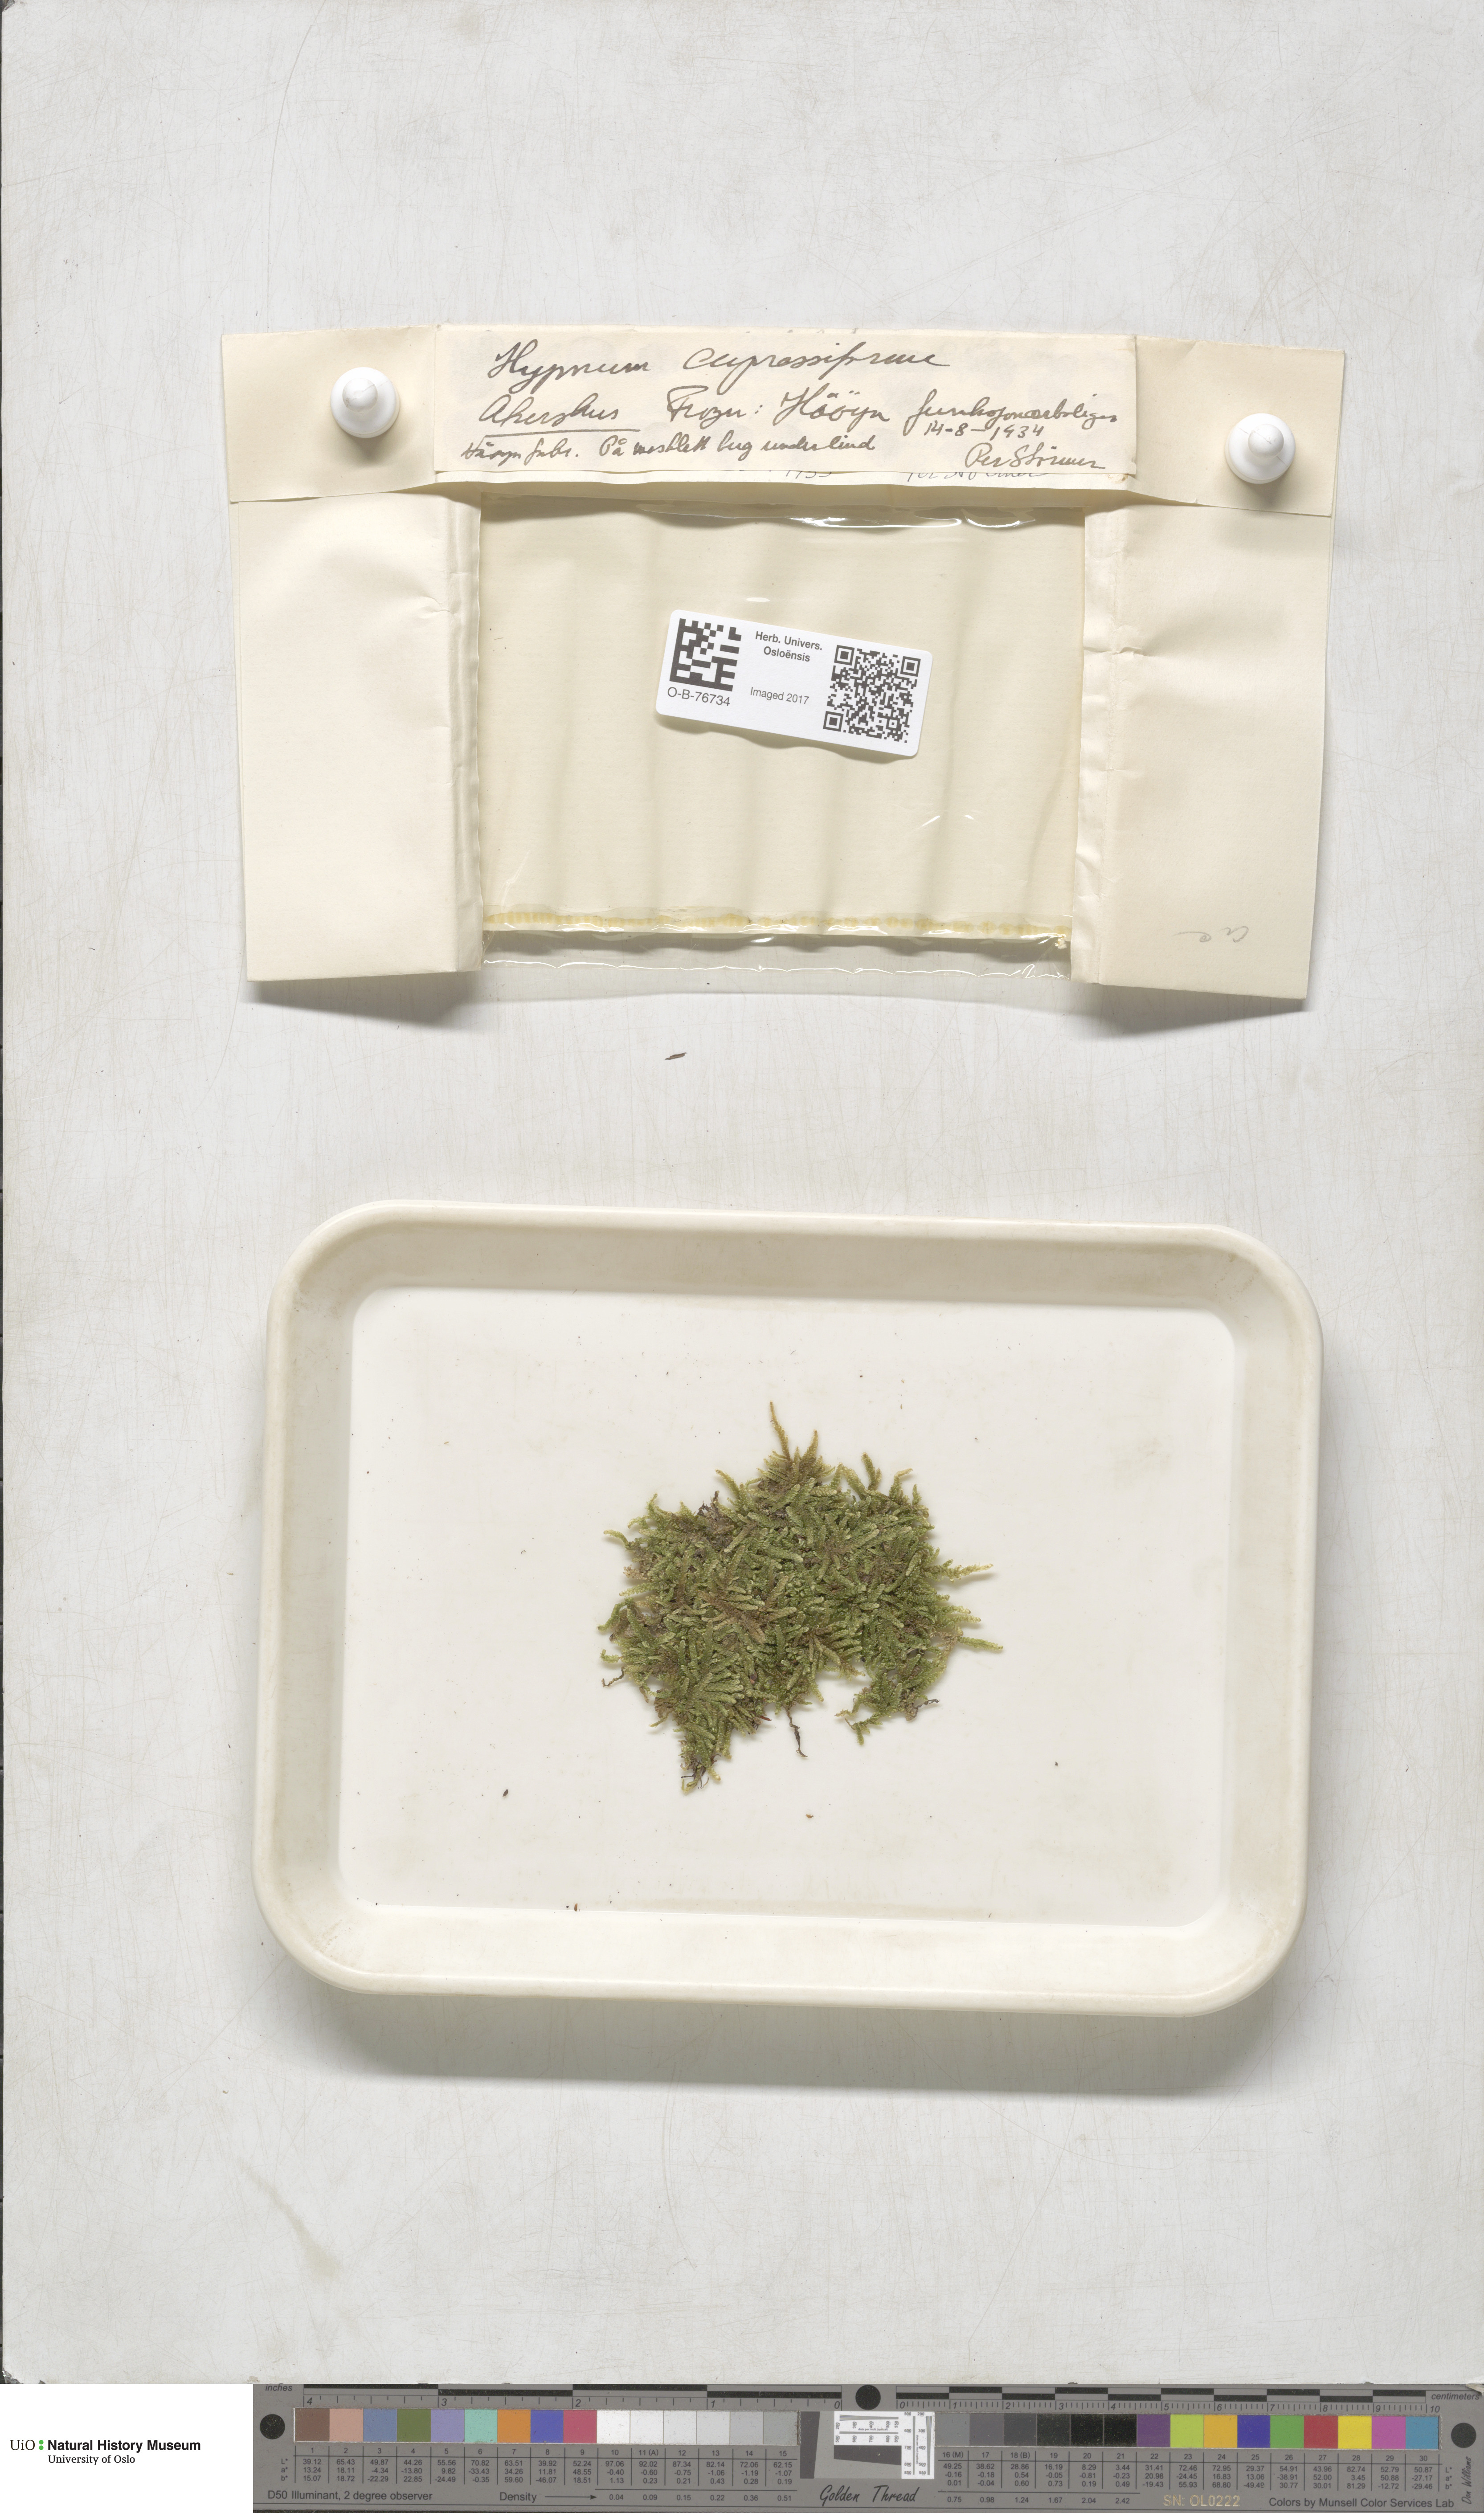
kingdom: Plantae
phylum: Bryophyta
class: Bryopsida
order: Hypnales
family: Hypnaceae
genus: Hypnum
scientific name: Hypnum cupressiforme
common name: Cypress-leaved plait-moss
